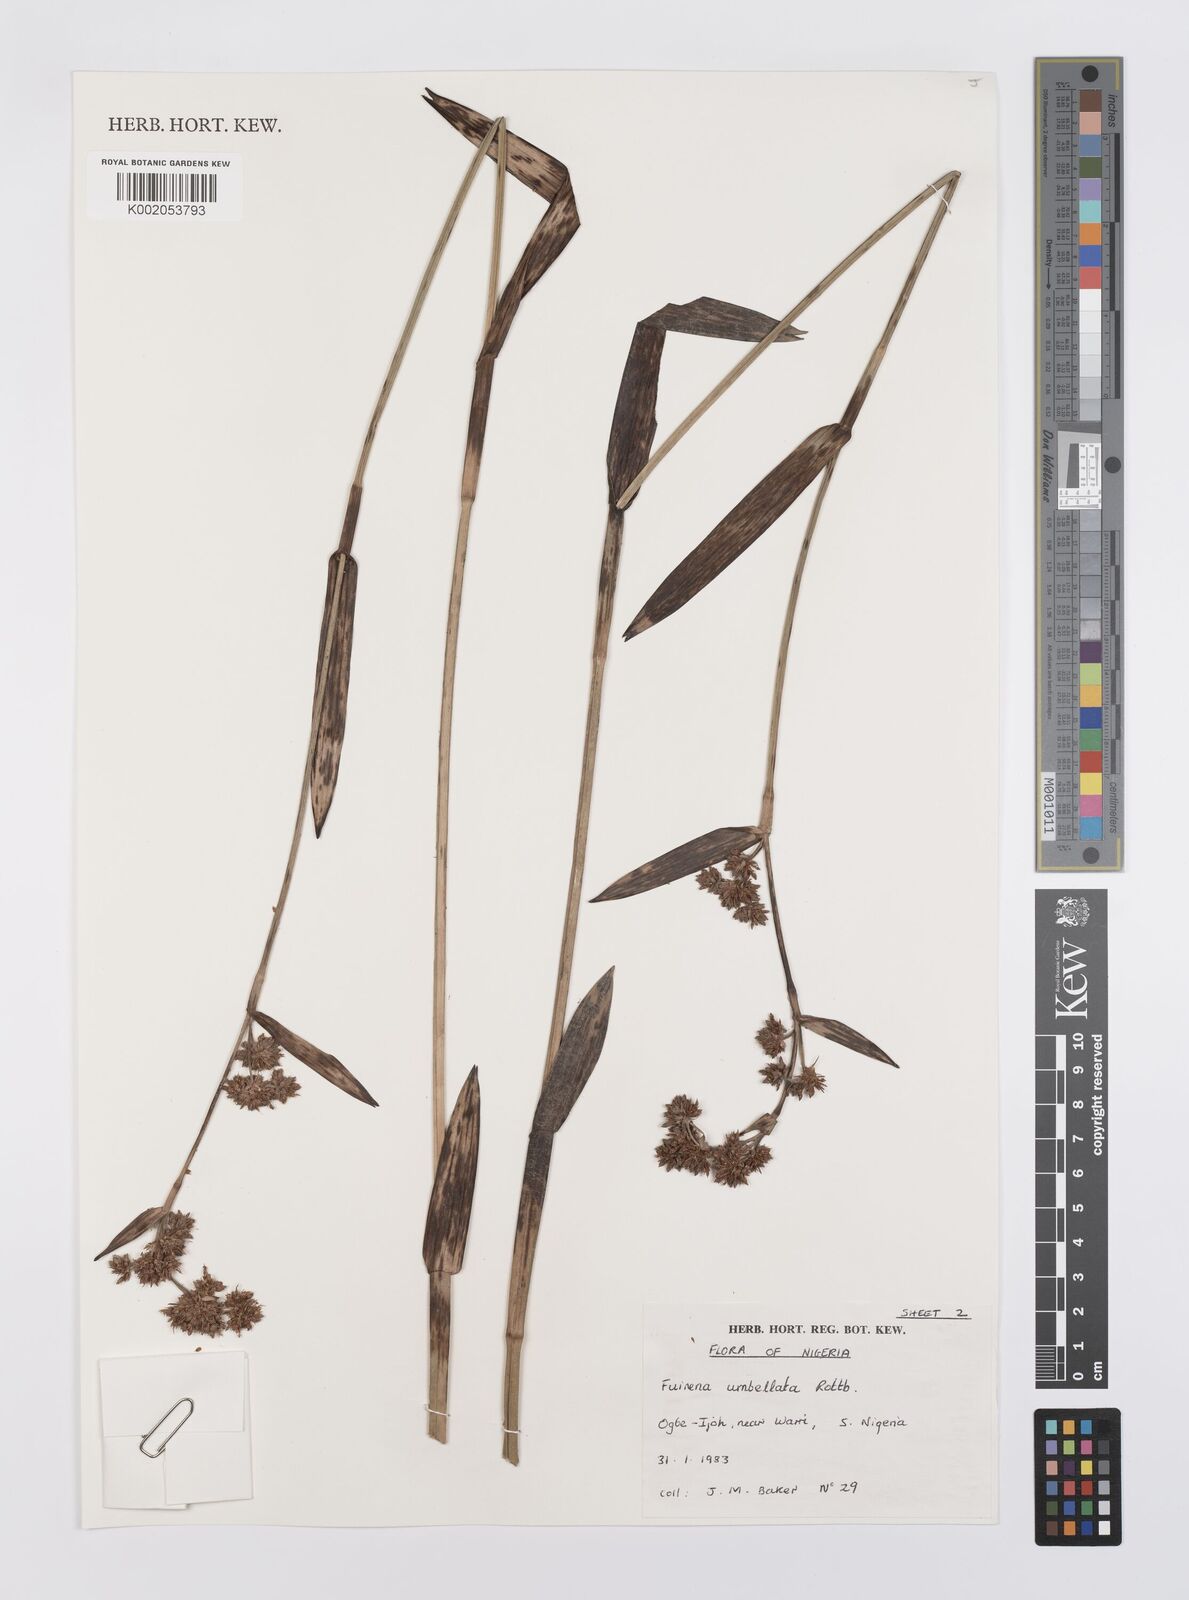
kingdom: Plantae
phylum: Tracheophyta
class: Liliopsida
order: Poales
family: Cyperaceae
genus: Fuirena
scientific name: Fuirena umbellata
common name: Yefen
